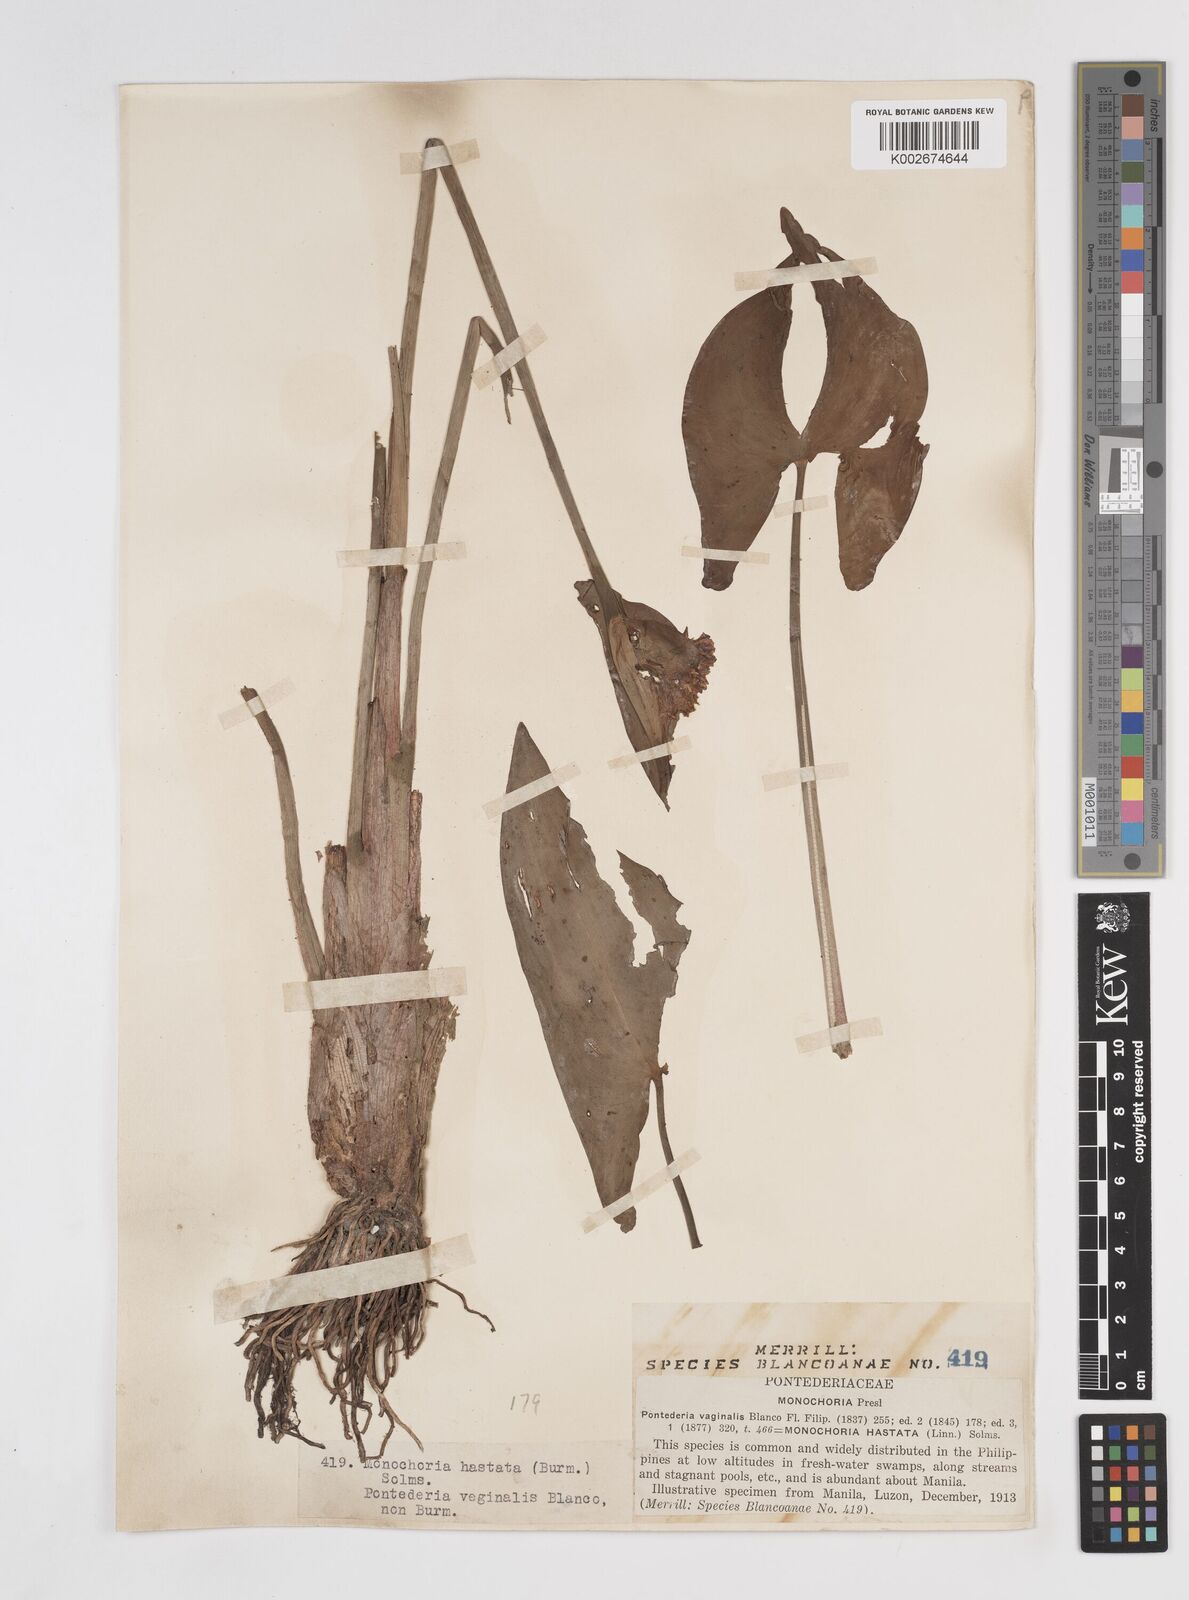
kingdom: Plantae
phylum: Tracheophyta
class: Liliopsida
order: Commelinales
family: Pontederiaceae
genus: Pontederia
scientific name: Pontederia hastata
